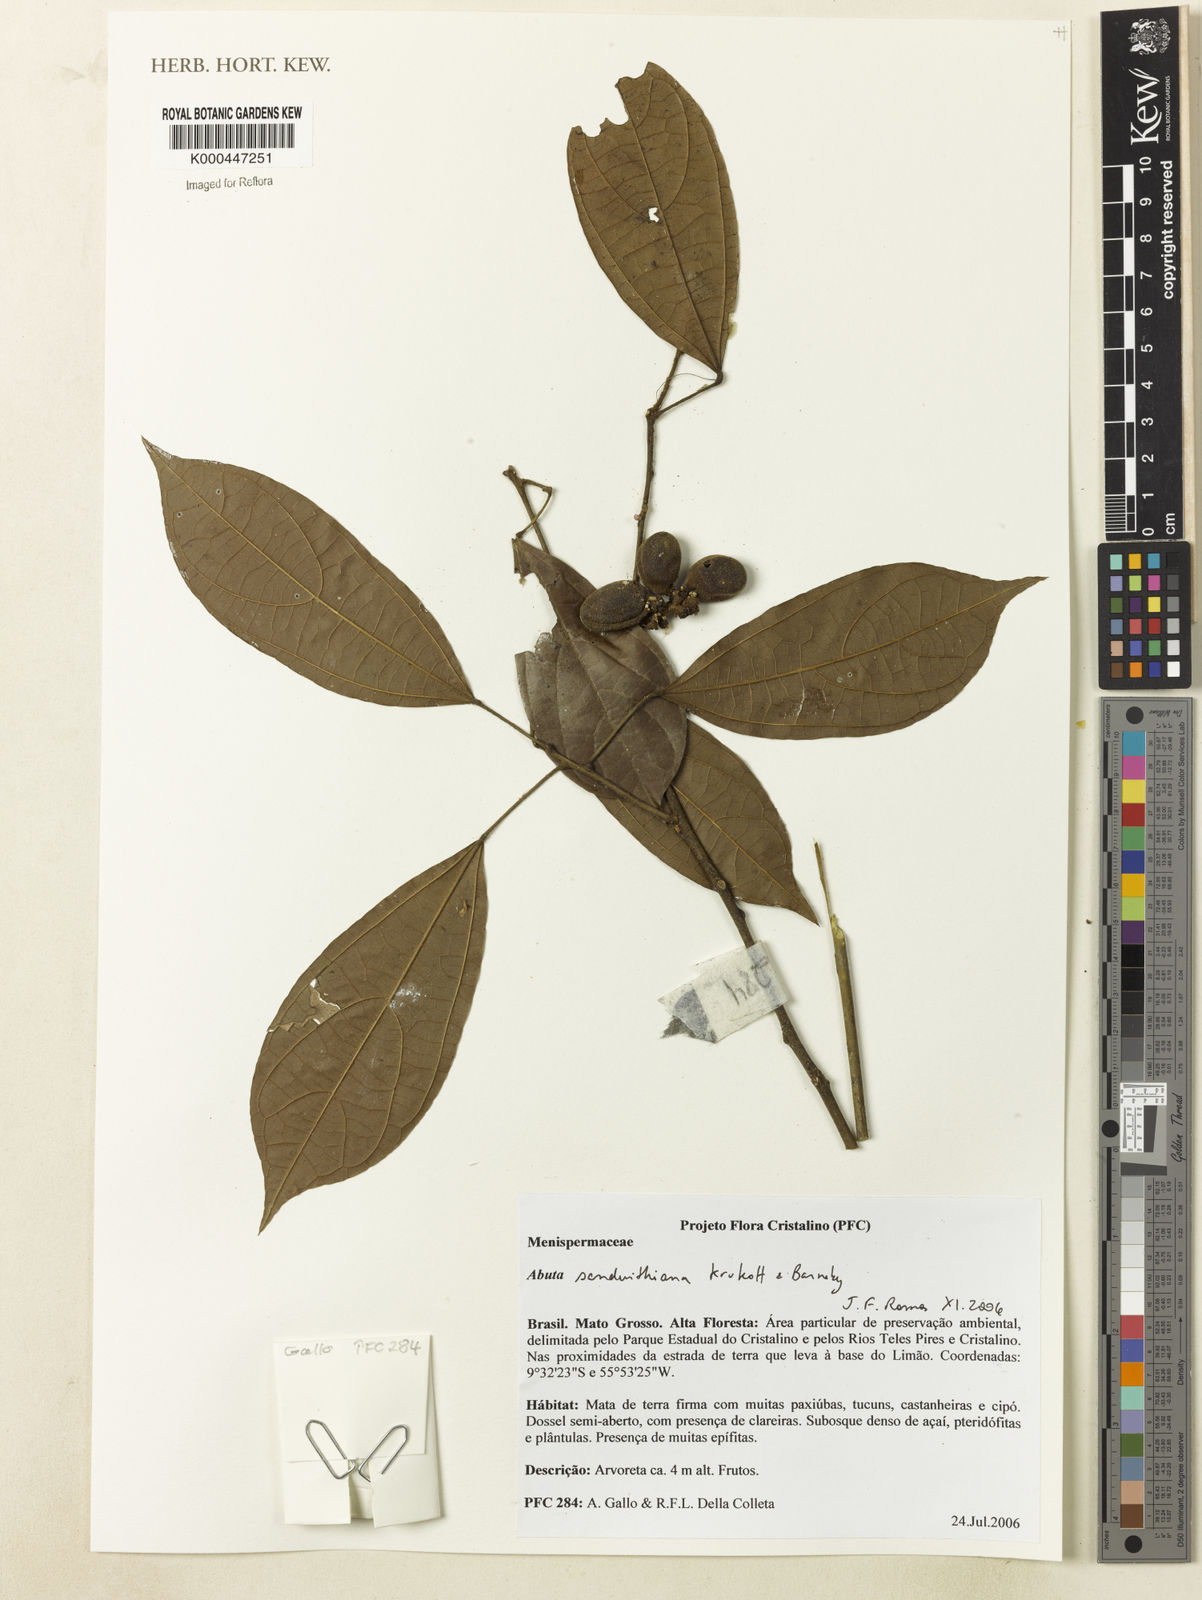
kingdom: Plantae
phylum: Tracheophyta
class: Magnoliopsida
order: Ranunculales
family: Menispermaceae
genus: Abuta
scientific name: Abuta sandwithiana
